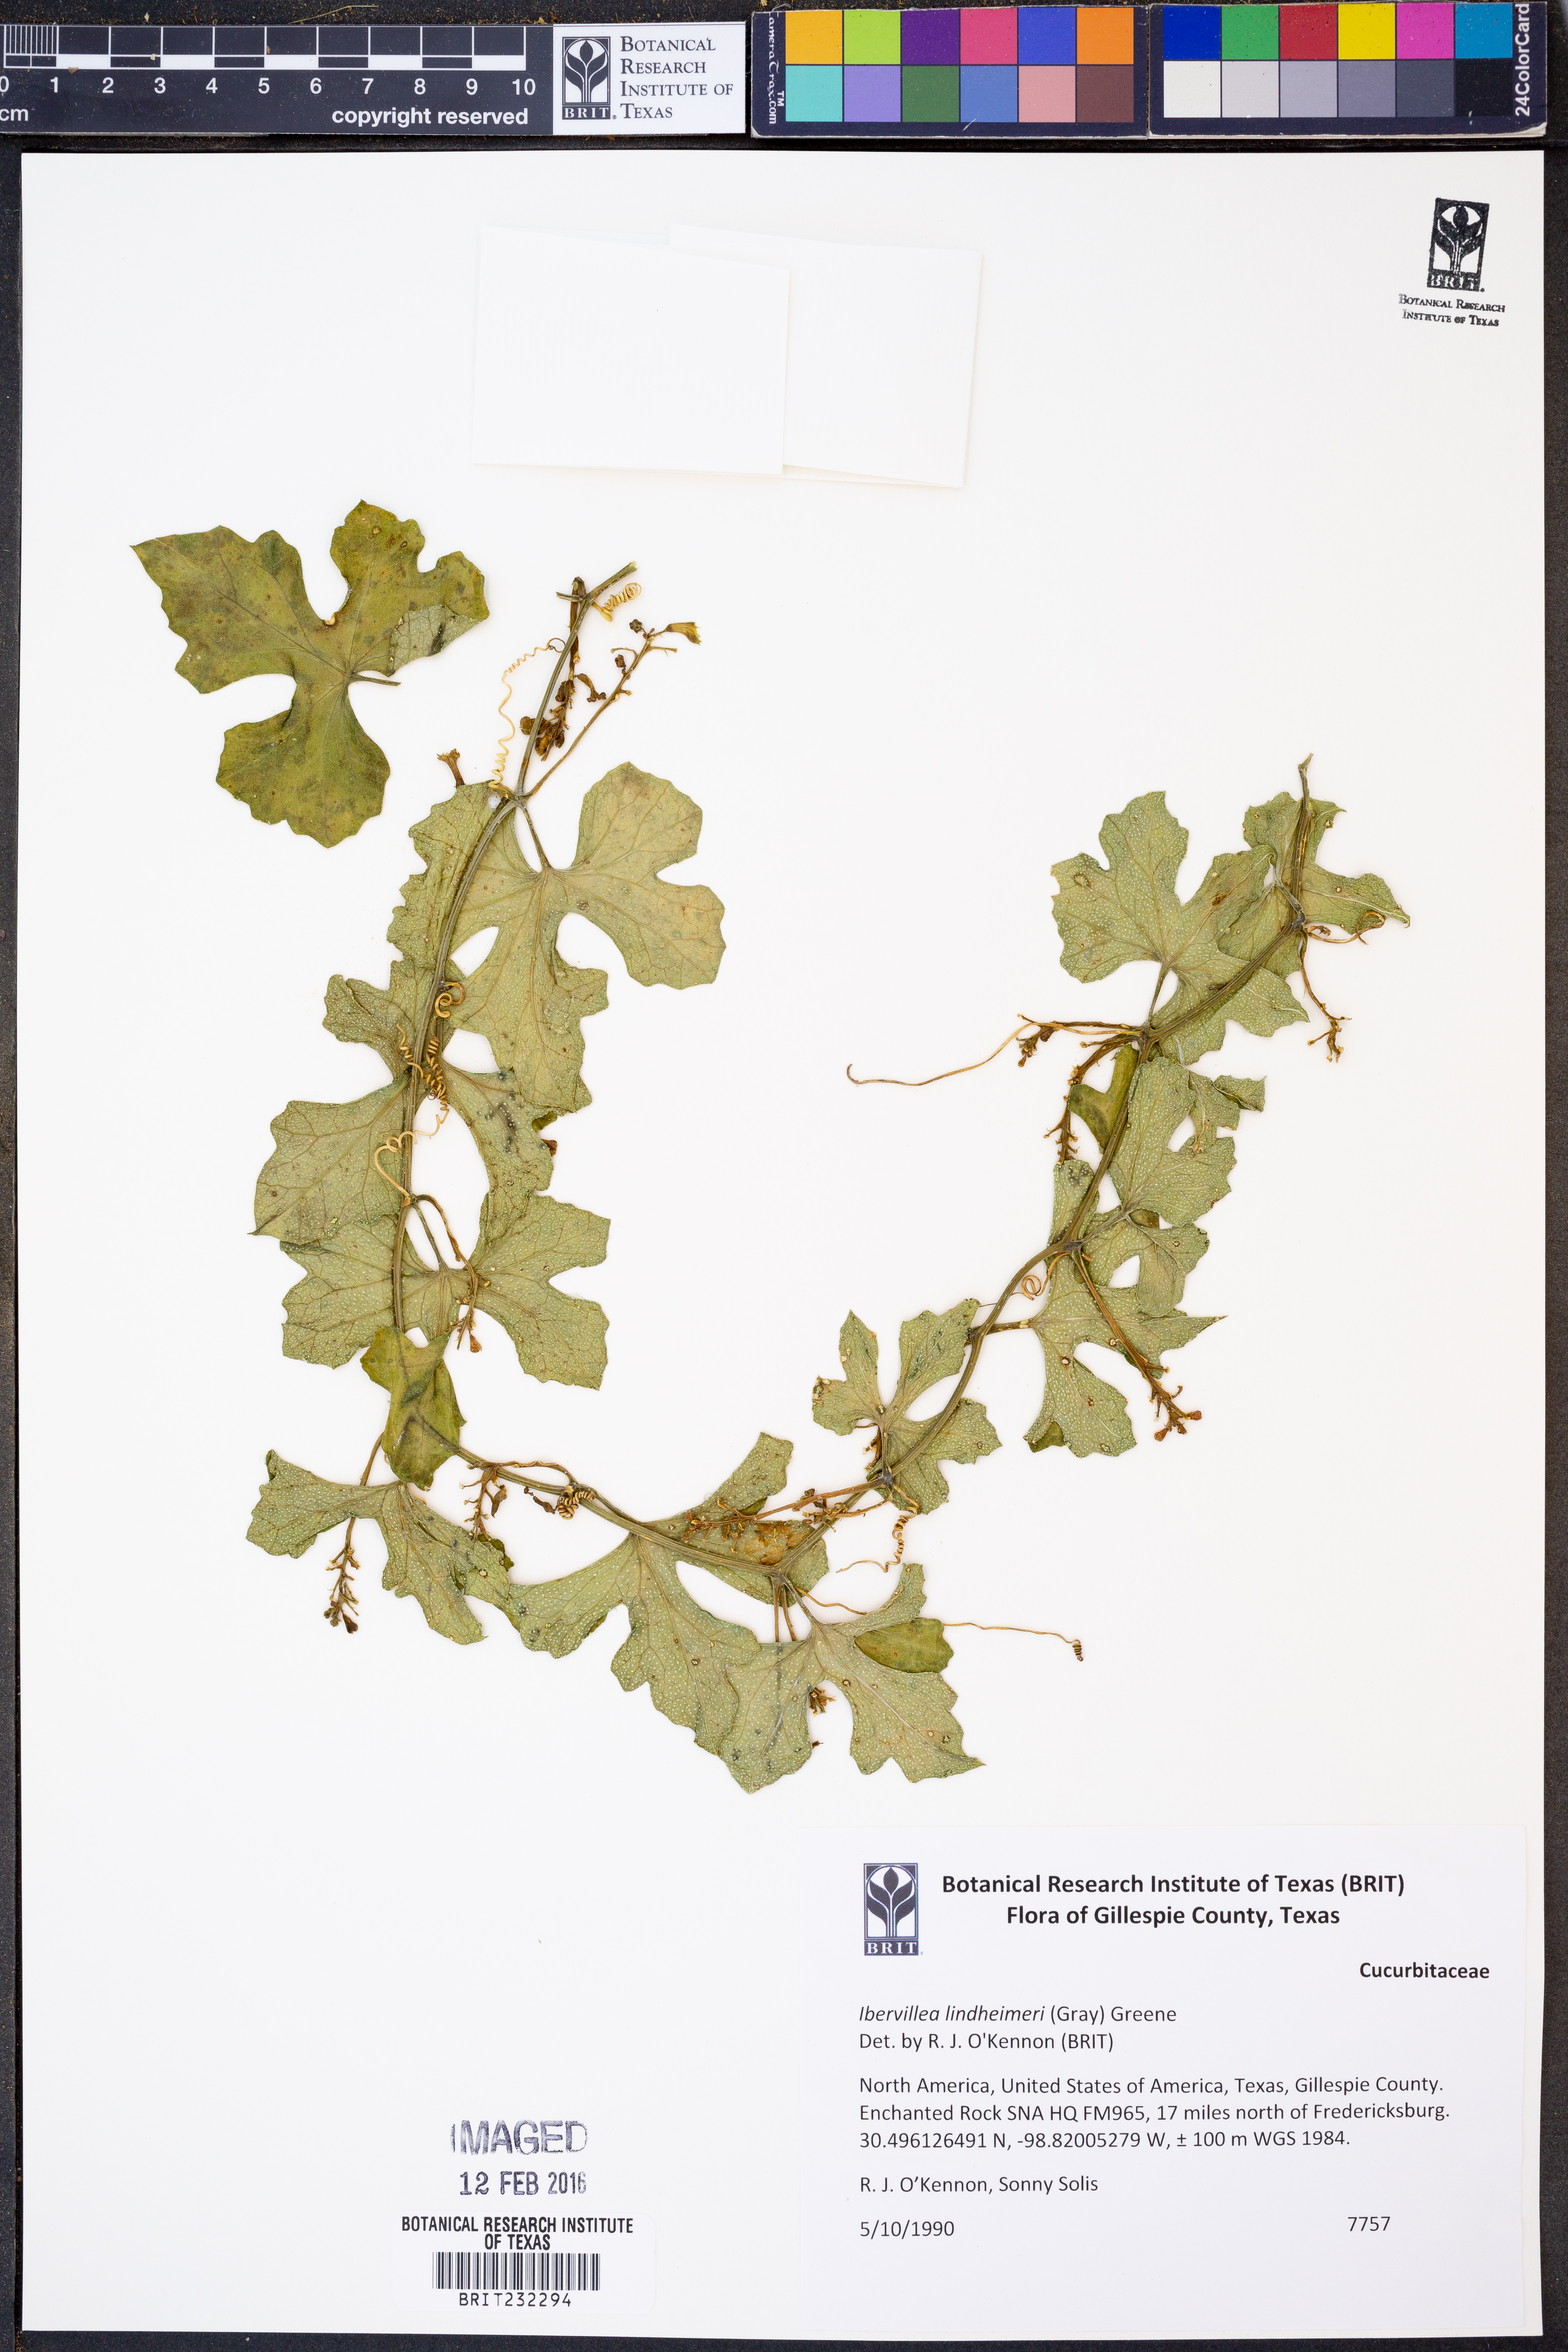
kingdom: Plantae
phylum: Tracheophyta
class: Magnoliopsida
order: Cucurbitales
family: Cucurbitaceae
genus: Ibervillea
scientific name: Ibervillea lindheimeri
